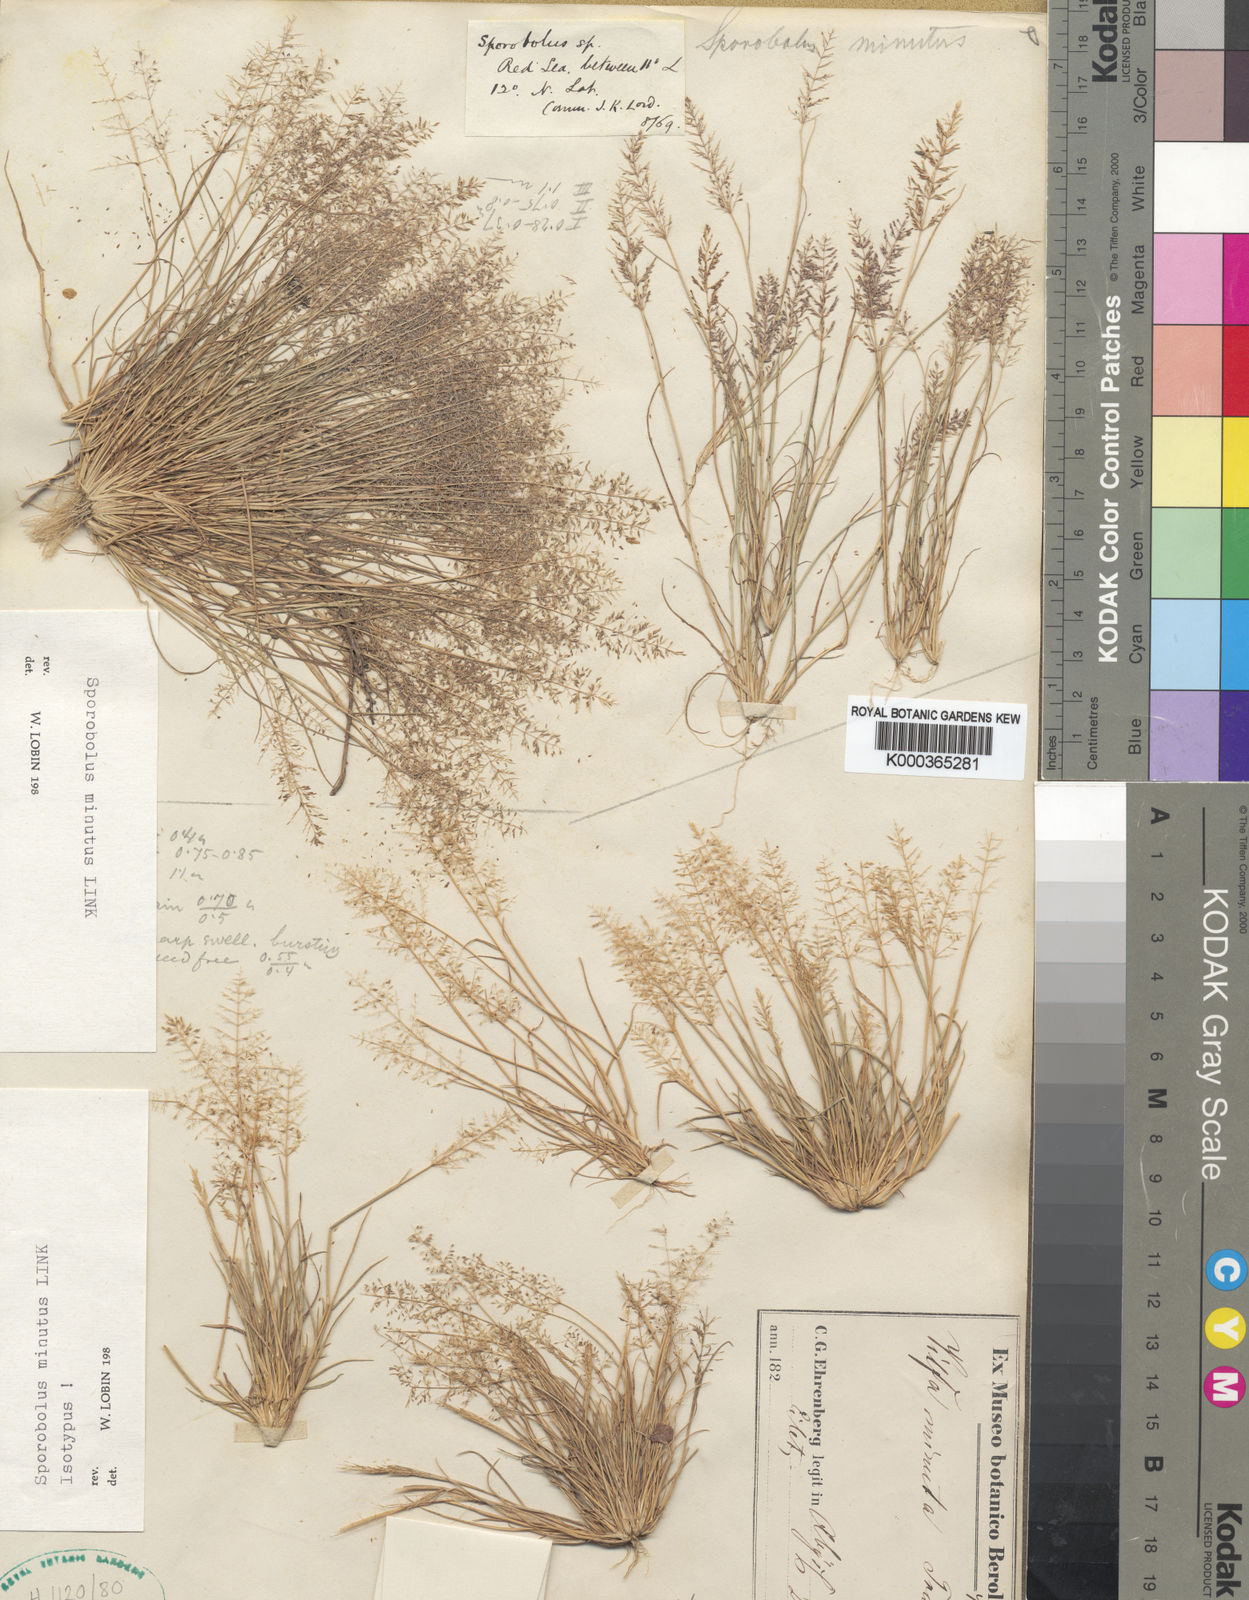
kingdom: Plantae
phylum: Tracheophyta
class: Liliopsida
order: Poales
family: Poaceae
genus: Sporobolus
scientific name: Sporobolus minutus
